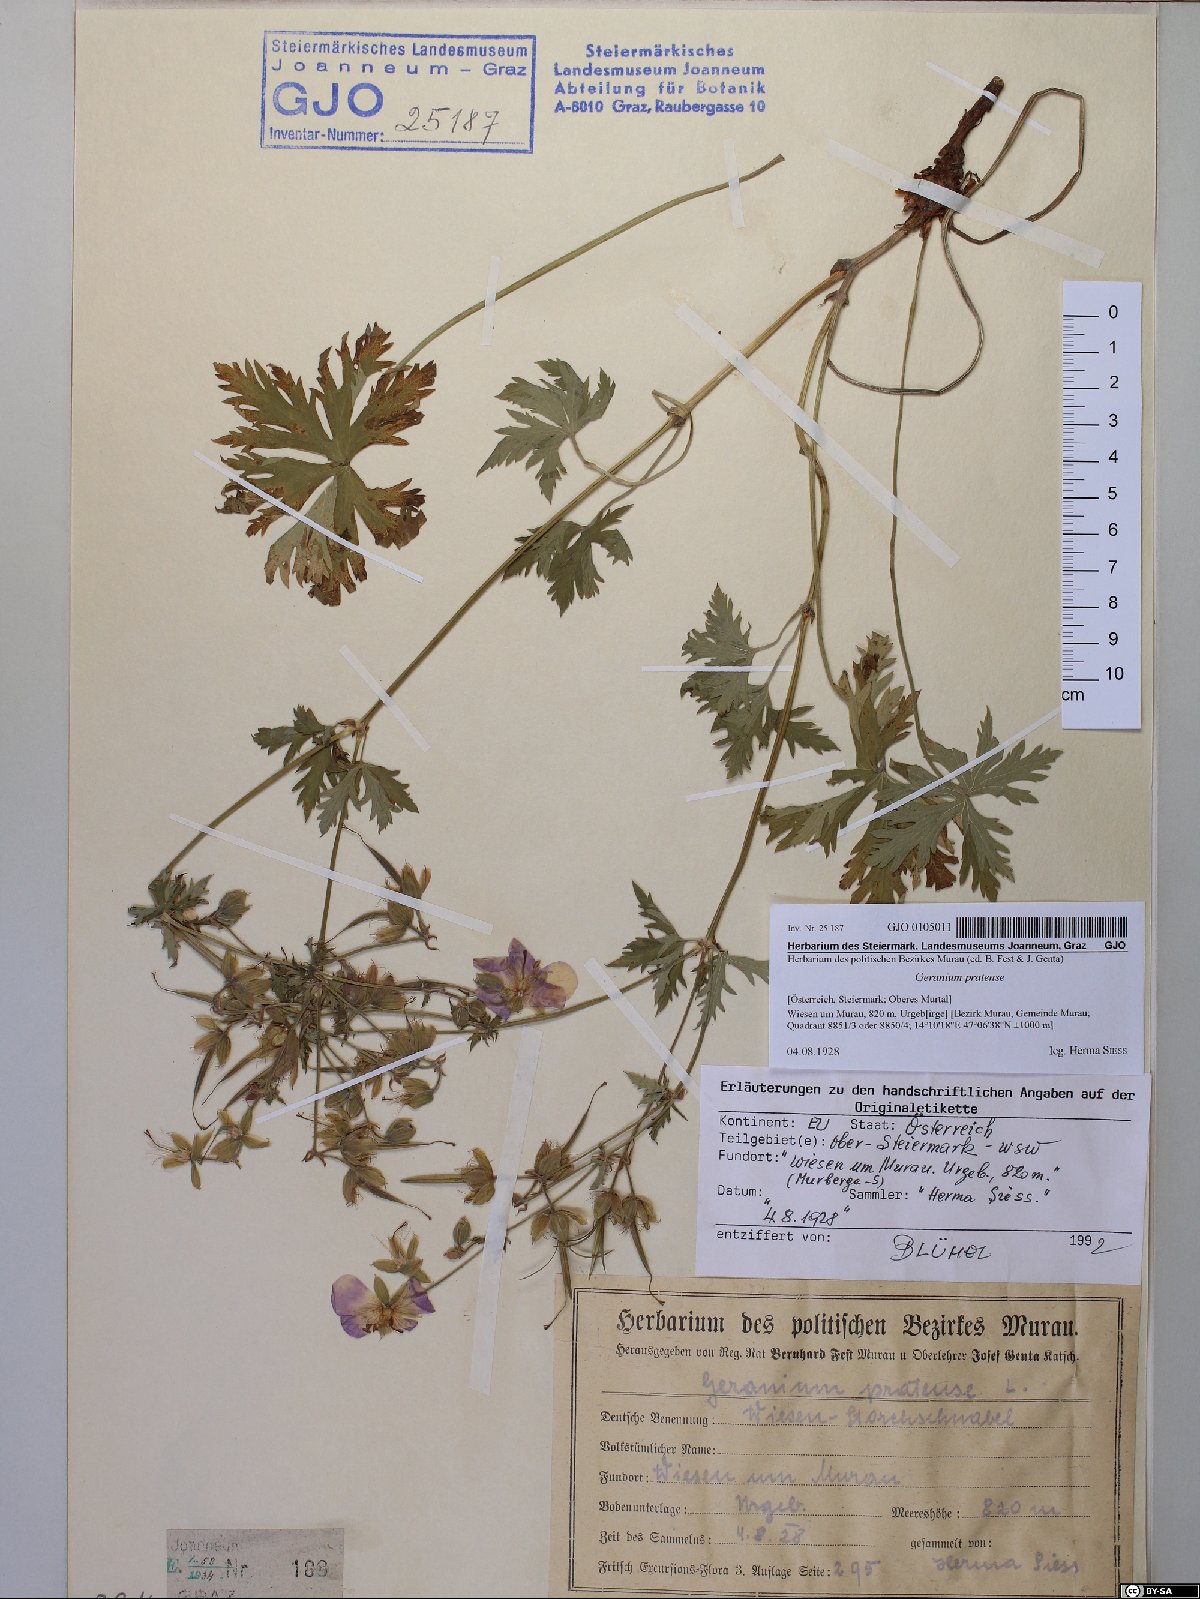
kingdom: Plantae
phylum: Tracheophyta
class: Magnoliopsida
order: Geraniales
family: Geraniaceae
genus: Geranium
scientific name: Geranium pratense
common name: Meadow crane's-bill
